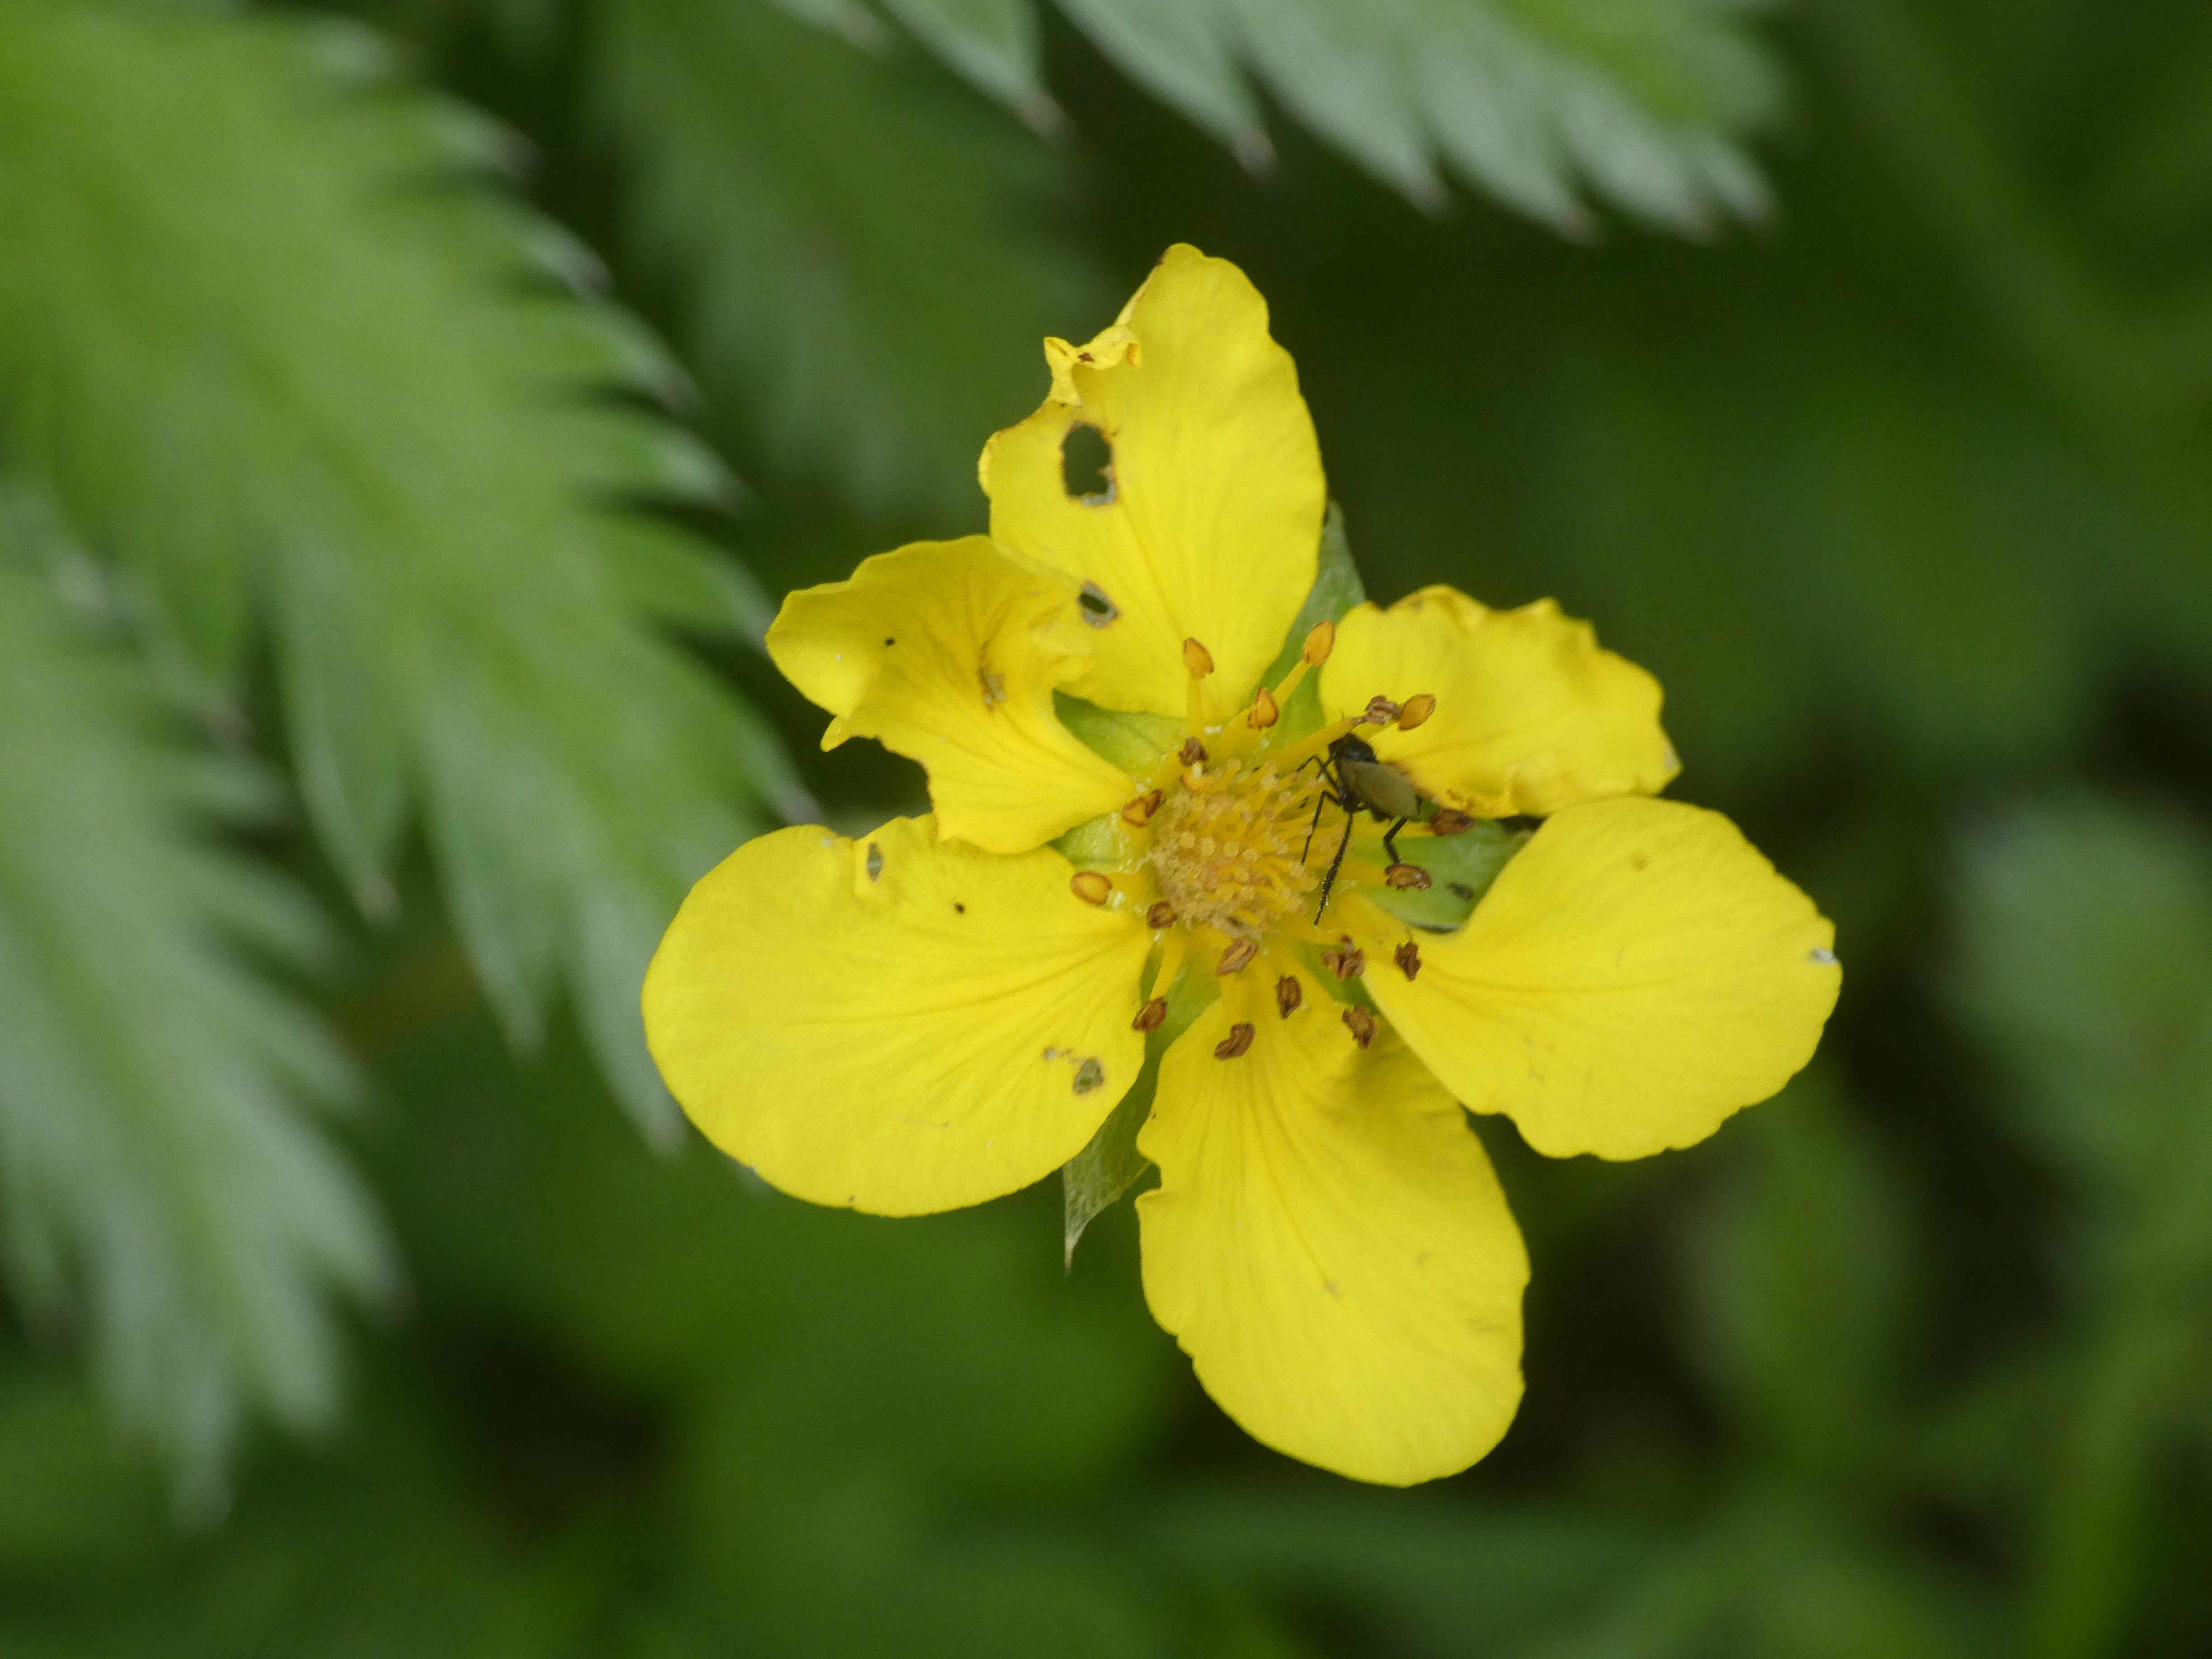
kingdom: Plantae
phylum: Tracheophyta
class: Magnoliopsida
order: Rosales
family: Rosaceae
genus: Argentina
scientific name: Argentina anserina
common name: Gåsepotentil
